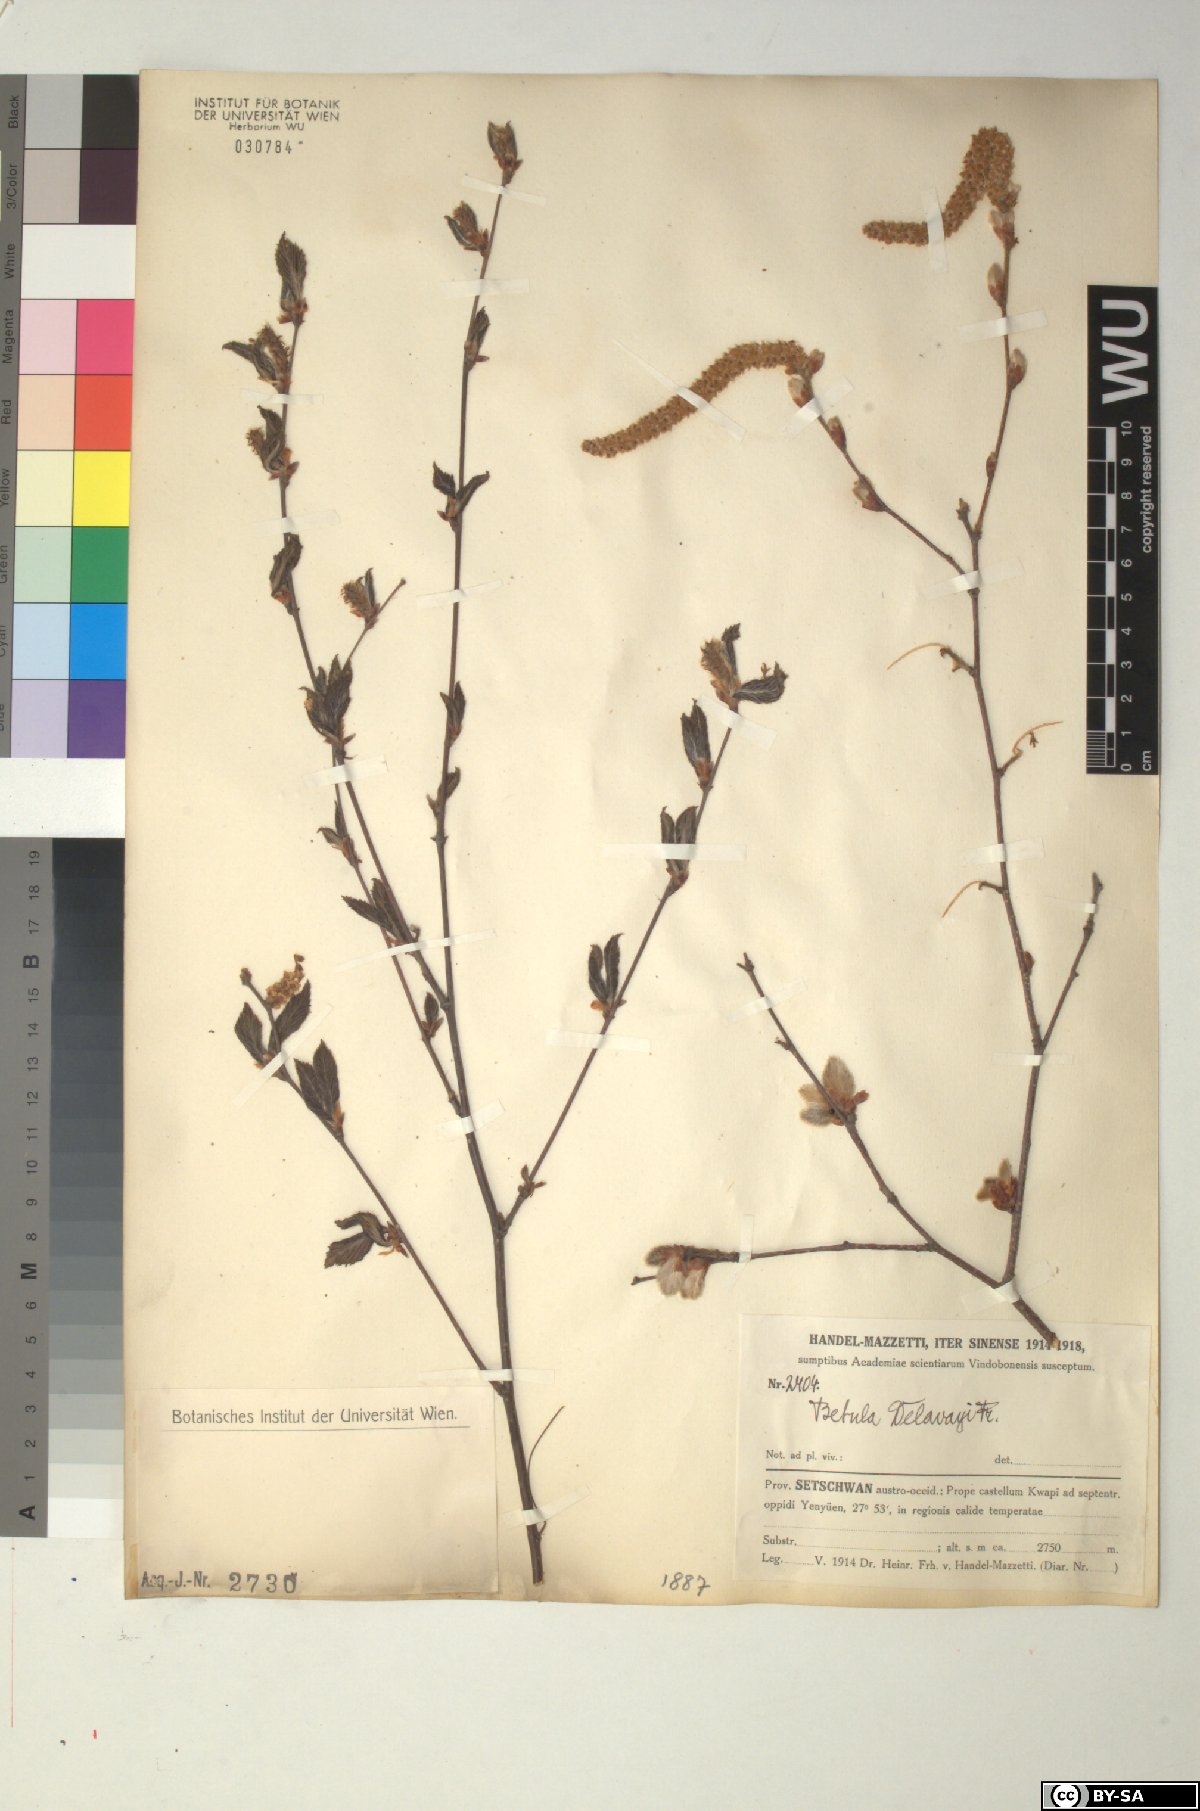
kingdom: Plantae
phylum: Tracheophyta
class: Magnoliopsida
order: Fagales
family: Betulaceae
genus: Betula
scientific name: Betula delavayi
